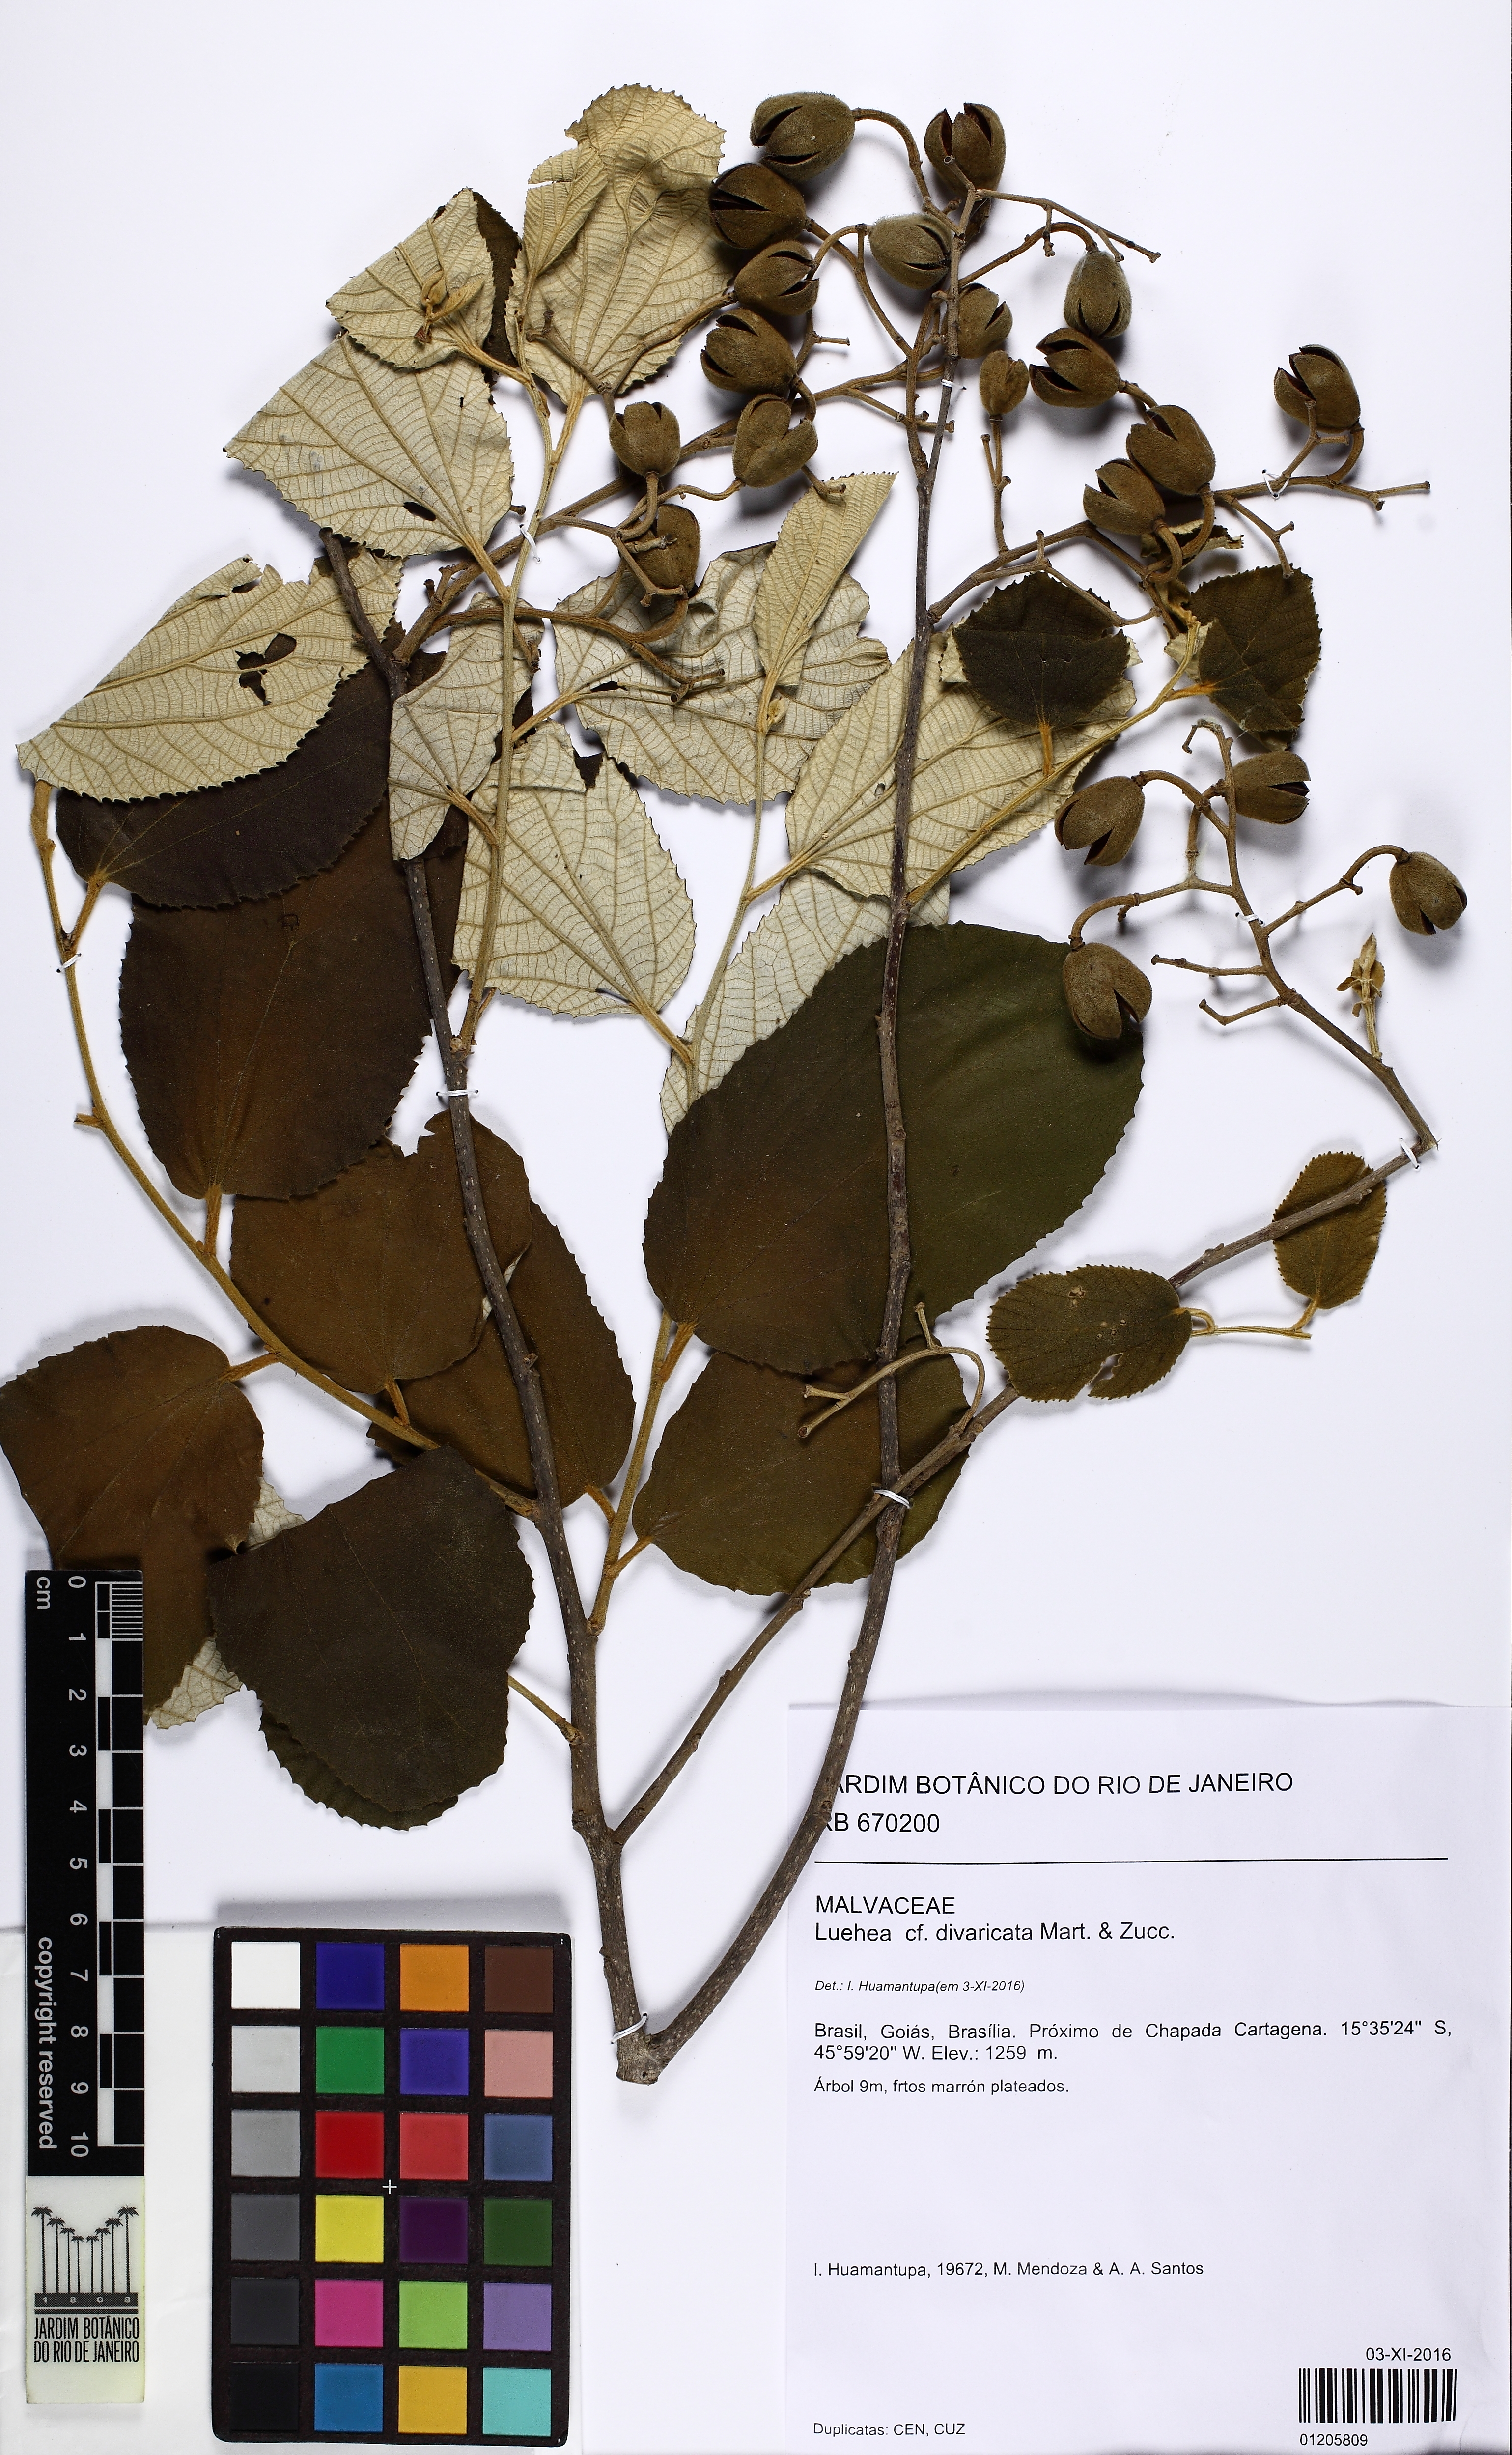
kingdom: Plantae
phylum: Tracheophyta
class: Magnoliopsida
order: Malvales
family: Malvaceae
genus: Luehea
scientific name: Luehea divaricata
